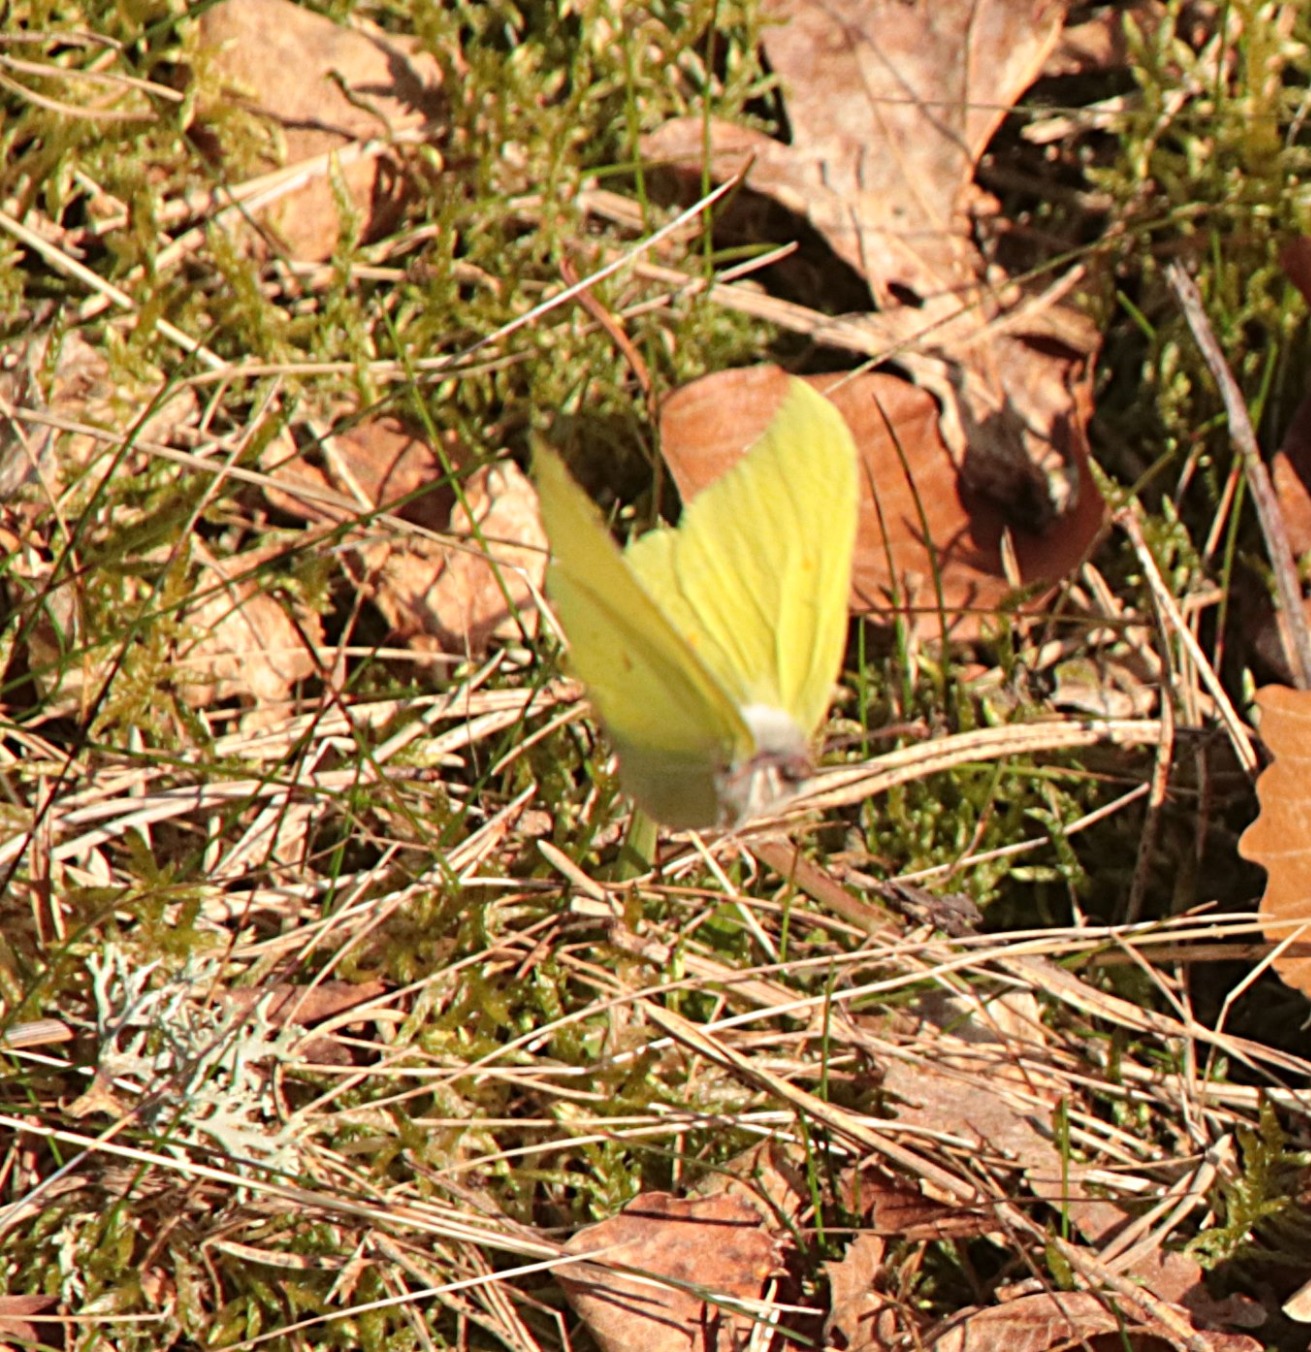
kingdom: Animalia
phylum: Arthropoda
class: Insecta
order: Lepidoptera
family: Pieridae
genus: Gonepteryx
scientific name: Gonepteryx rhamni
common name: Citronsommerfugl
